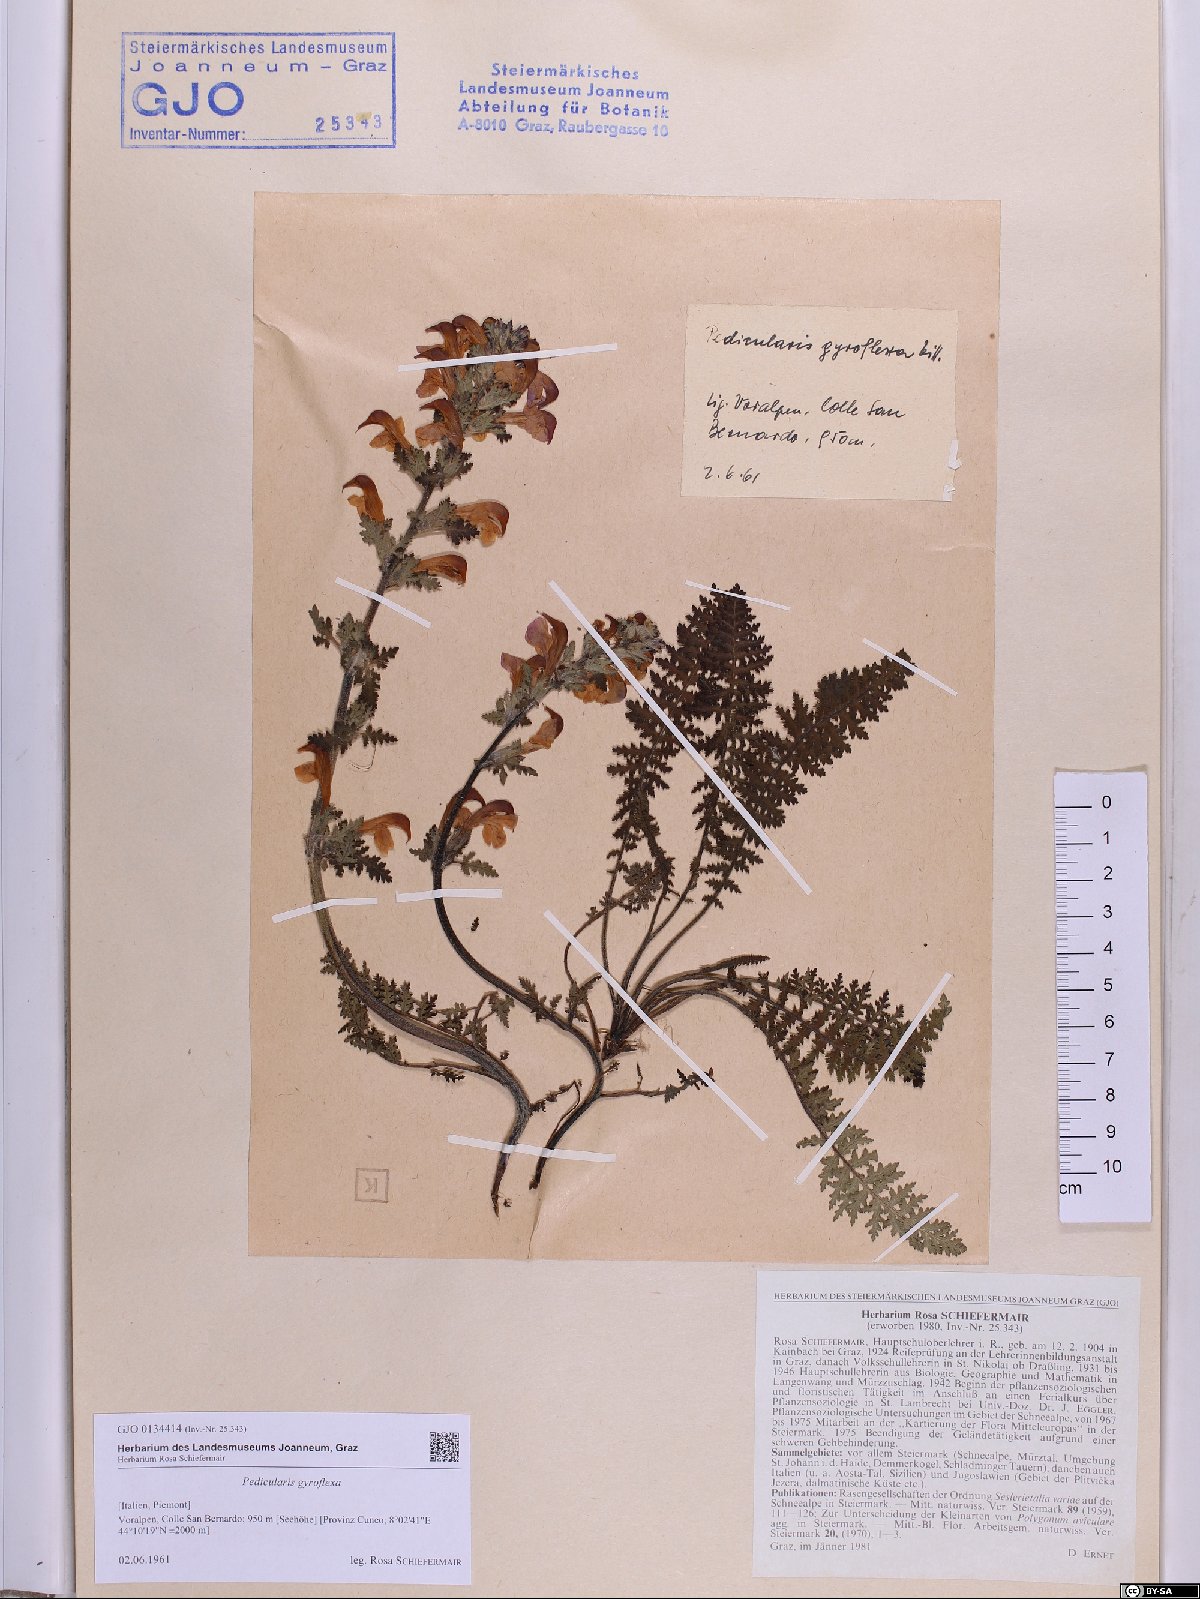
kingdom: Plantae
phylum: Tracheophyta
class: Magnoliopsida
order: Lamiales
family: Orobanchaceae
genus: Pedicularis
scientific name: Pedicularis gyroflexa
